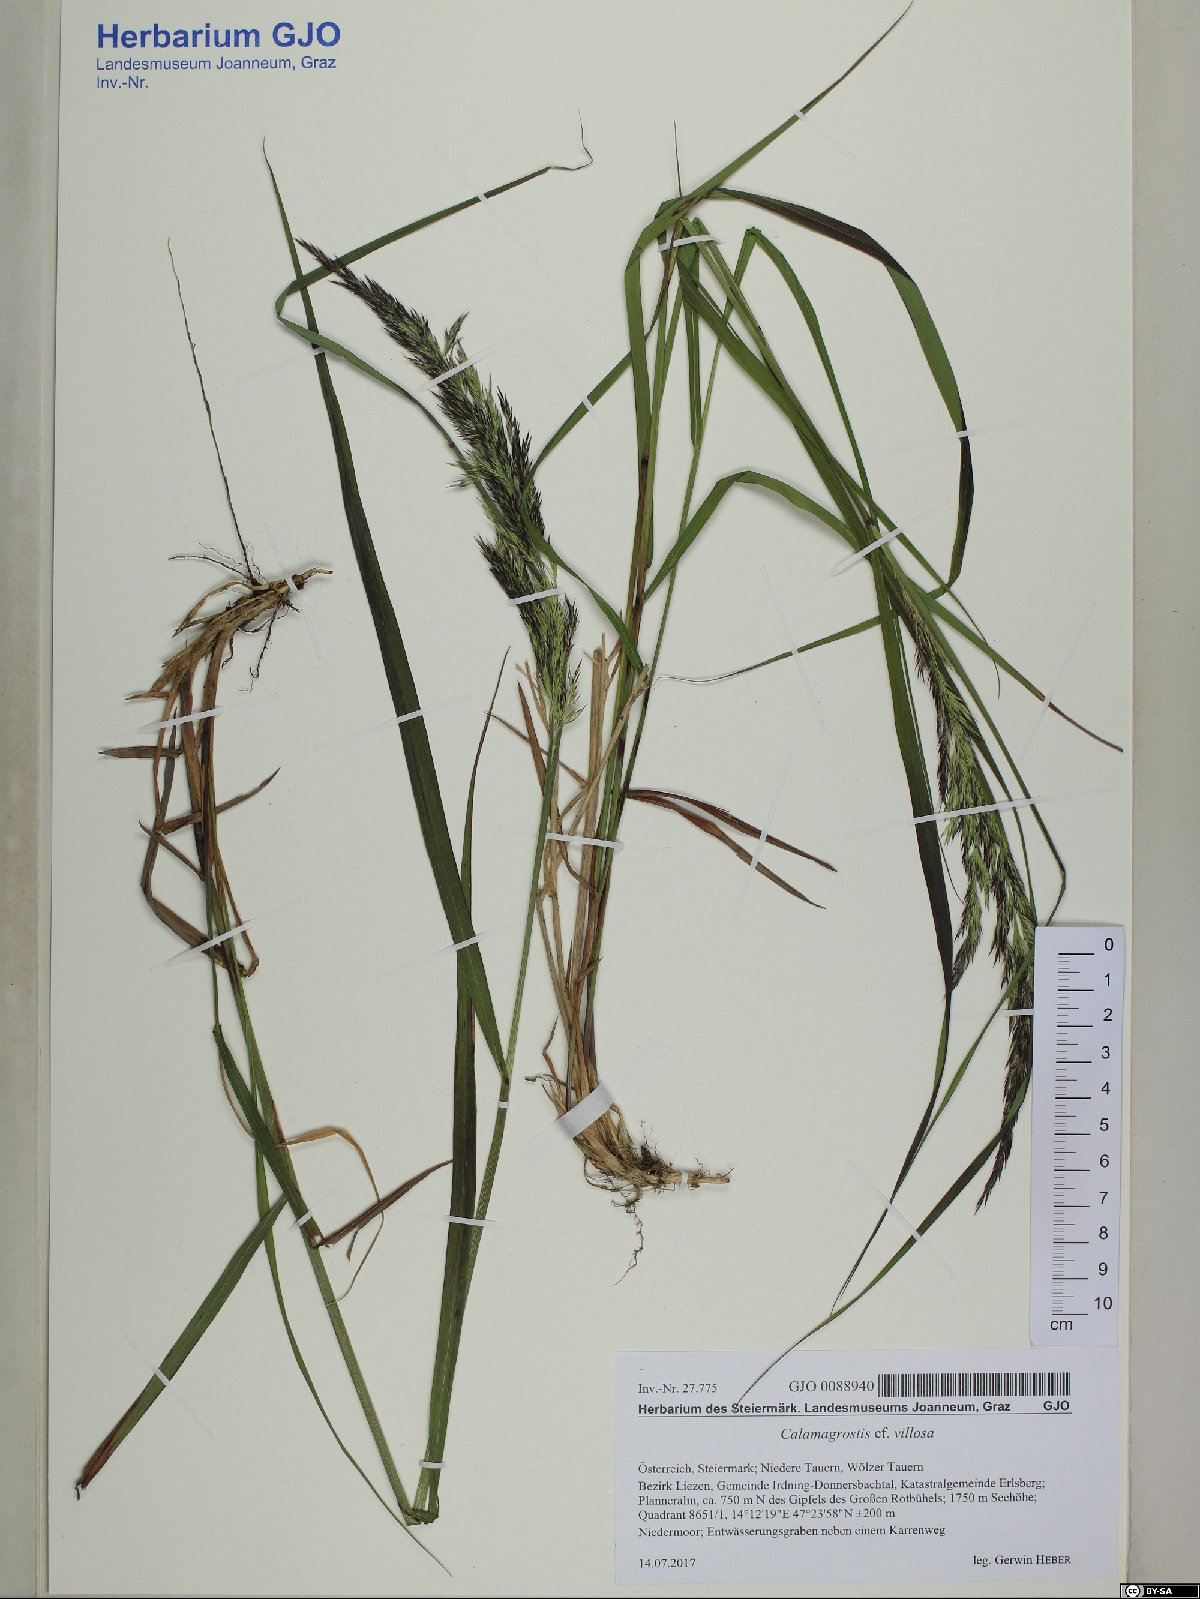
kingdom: Plantae
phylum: Tracheophyta
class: Liliopsida
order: Poales
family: Poaceae
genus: Calamagrostis
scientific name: Calamagrostis villosa
